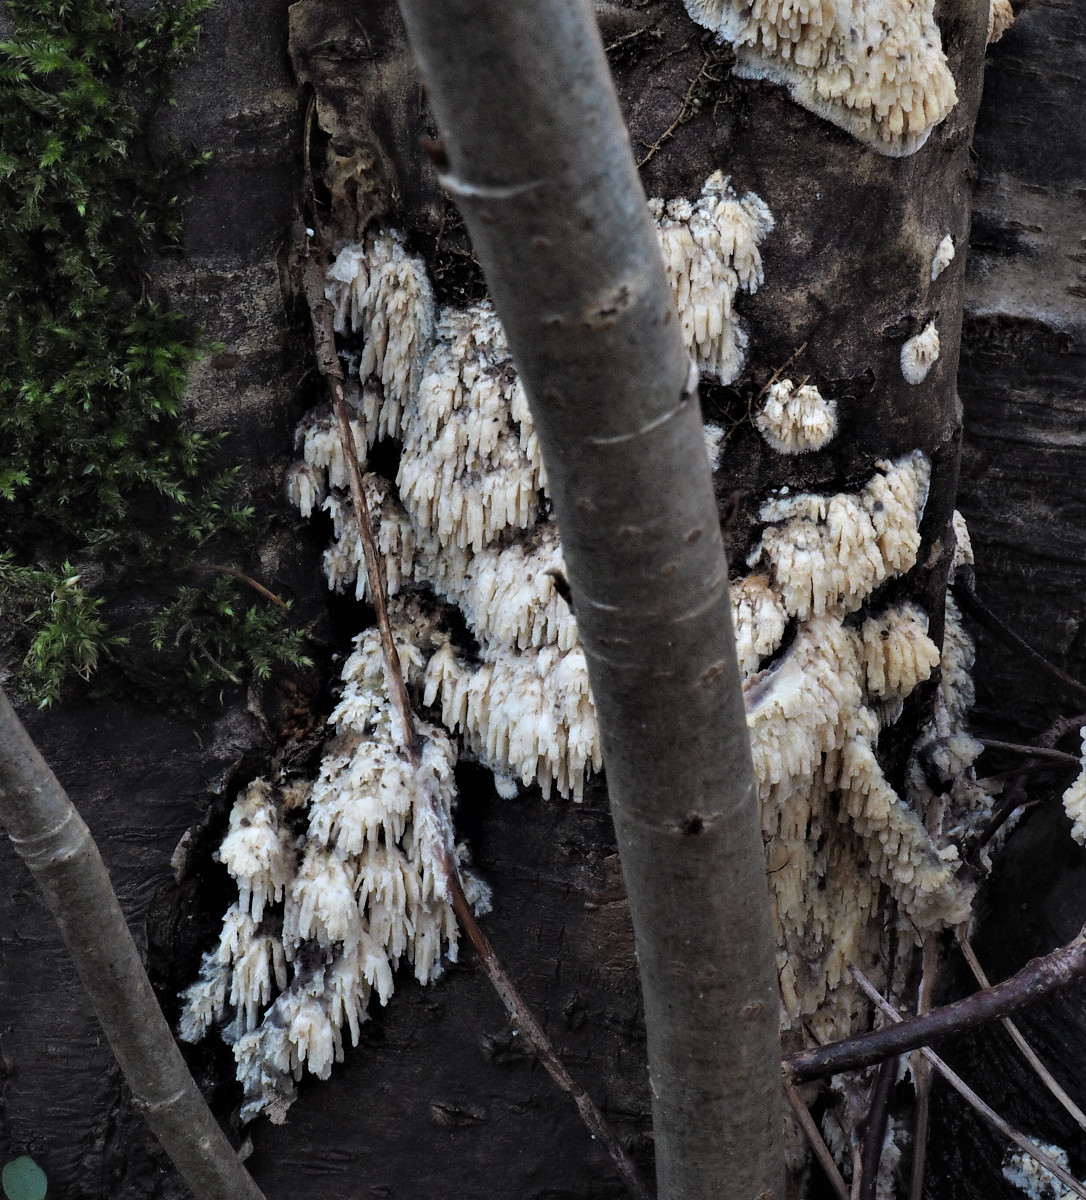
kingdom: Fungi
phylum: Basidiomycota
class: Agaricomycetes
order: Hymenochaetales
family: Schizoporaceae
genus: Xylodon
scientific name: Xylodon radula
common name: grovtandet kalkskind
